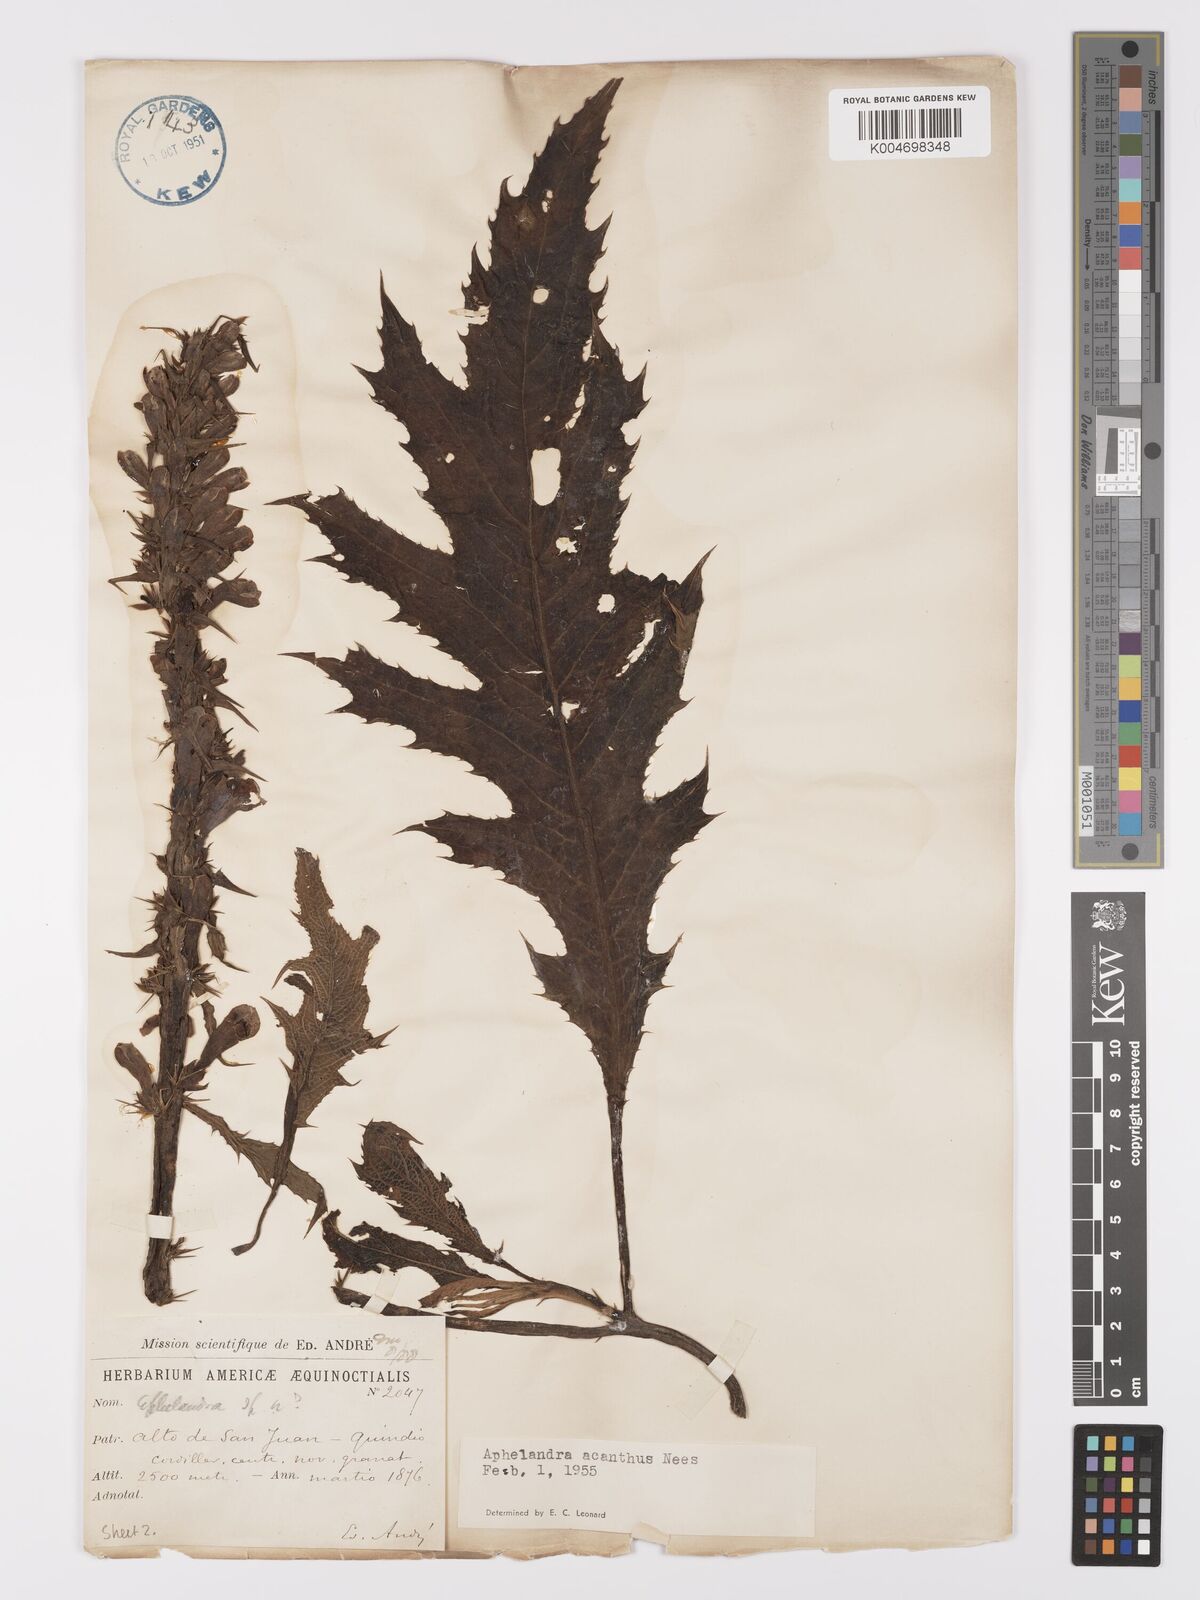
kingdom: Plantae
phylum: Tracheophyta
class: Magnoliopsida
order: Lamiales
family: Acanthaceae
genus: Aphelandra
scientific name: Aphelandra acanthus
